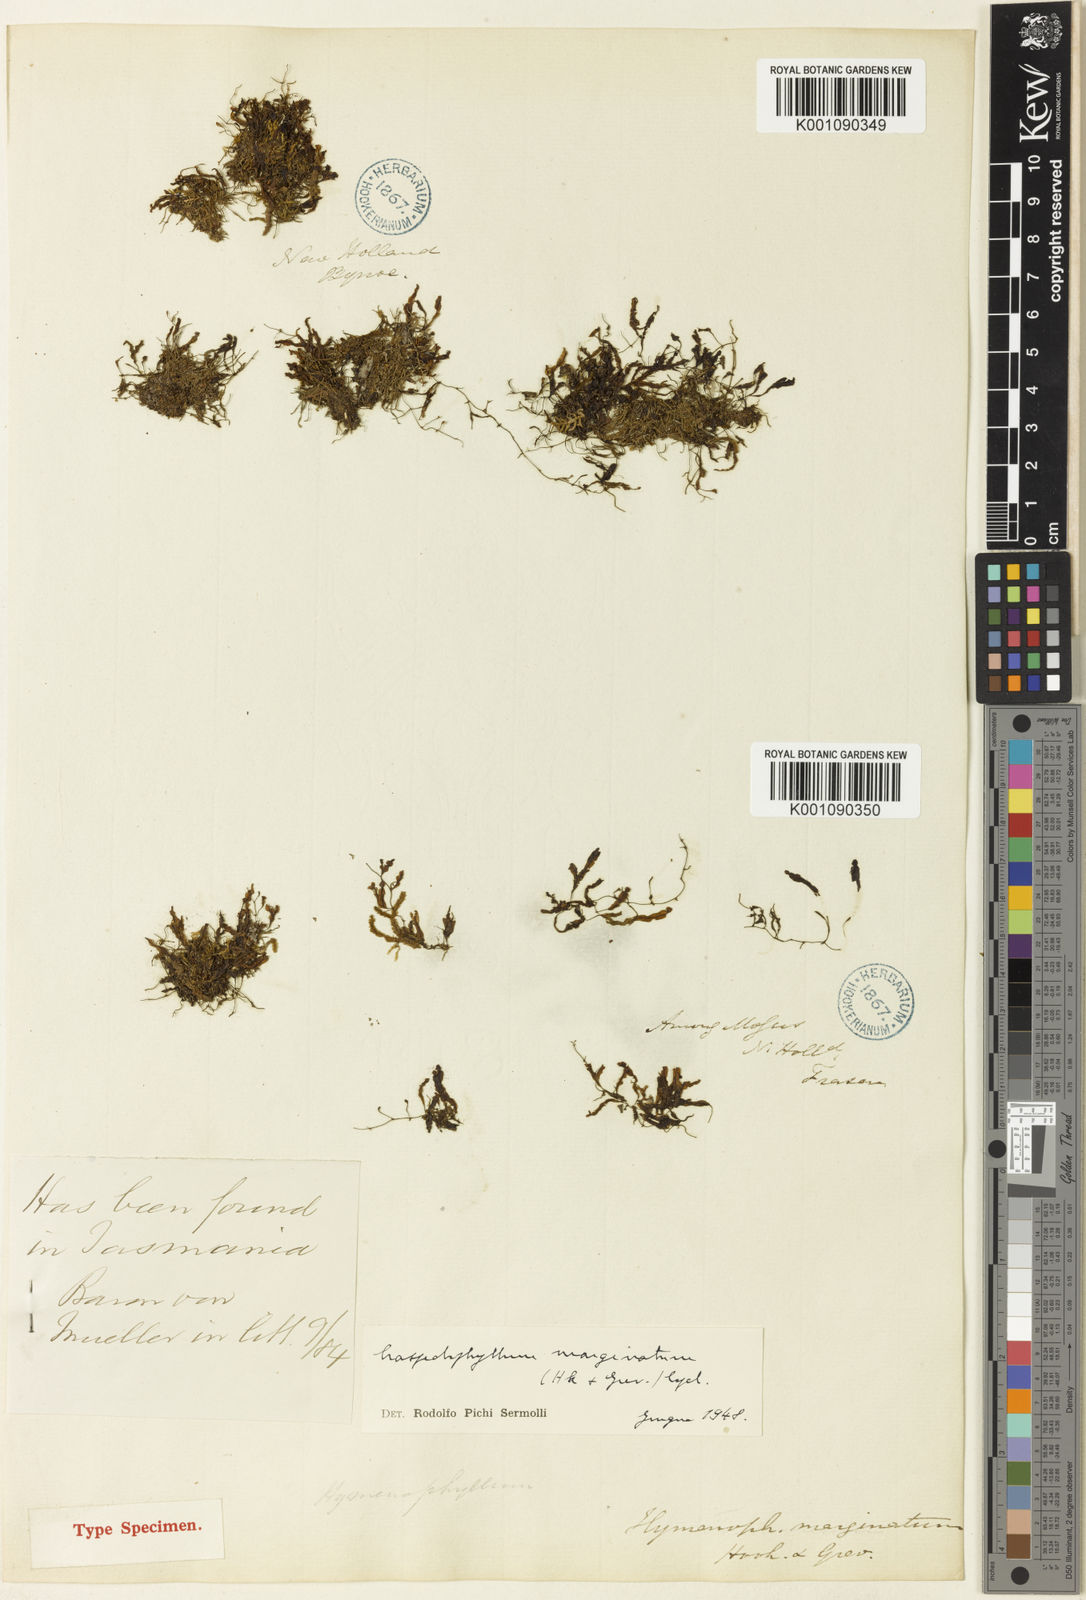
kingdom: Plantae
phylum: Tracheophyta
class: Polypodiopsida
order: Hymenophyllales
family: Hymenophyllaceae
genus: Hymenophyllum
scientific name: Hymenophyllum marginatum
